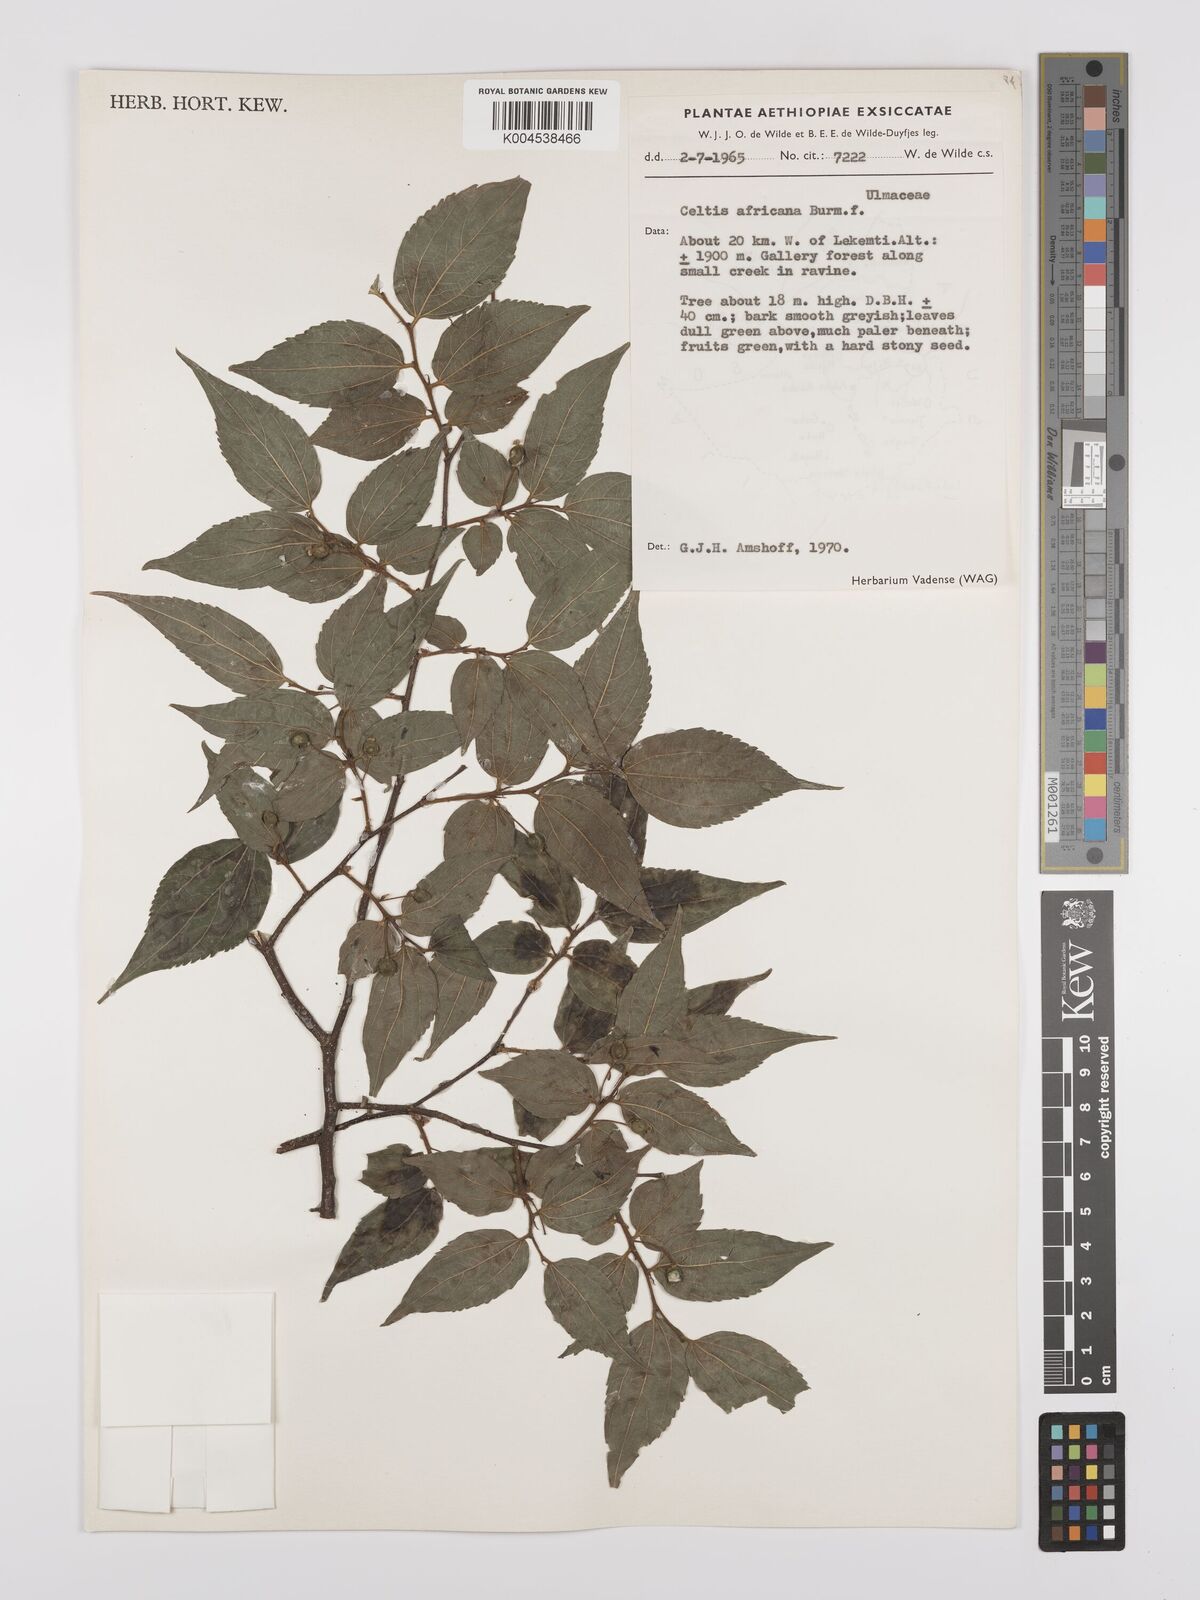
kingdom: Plantae
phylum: Tracheophyta
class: Magnoliopsida
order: Rosales
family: Cannabaceae
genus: Celtis
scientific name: Celtis africana
